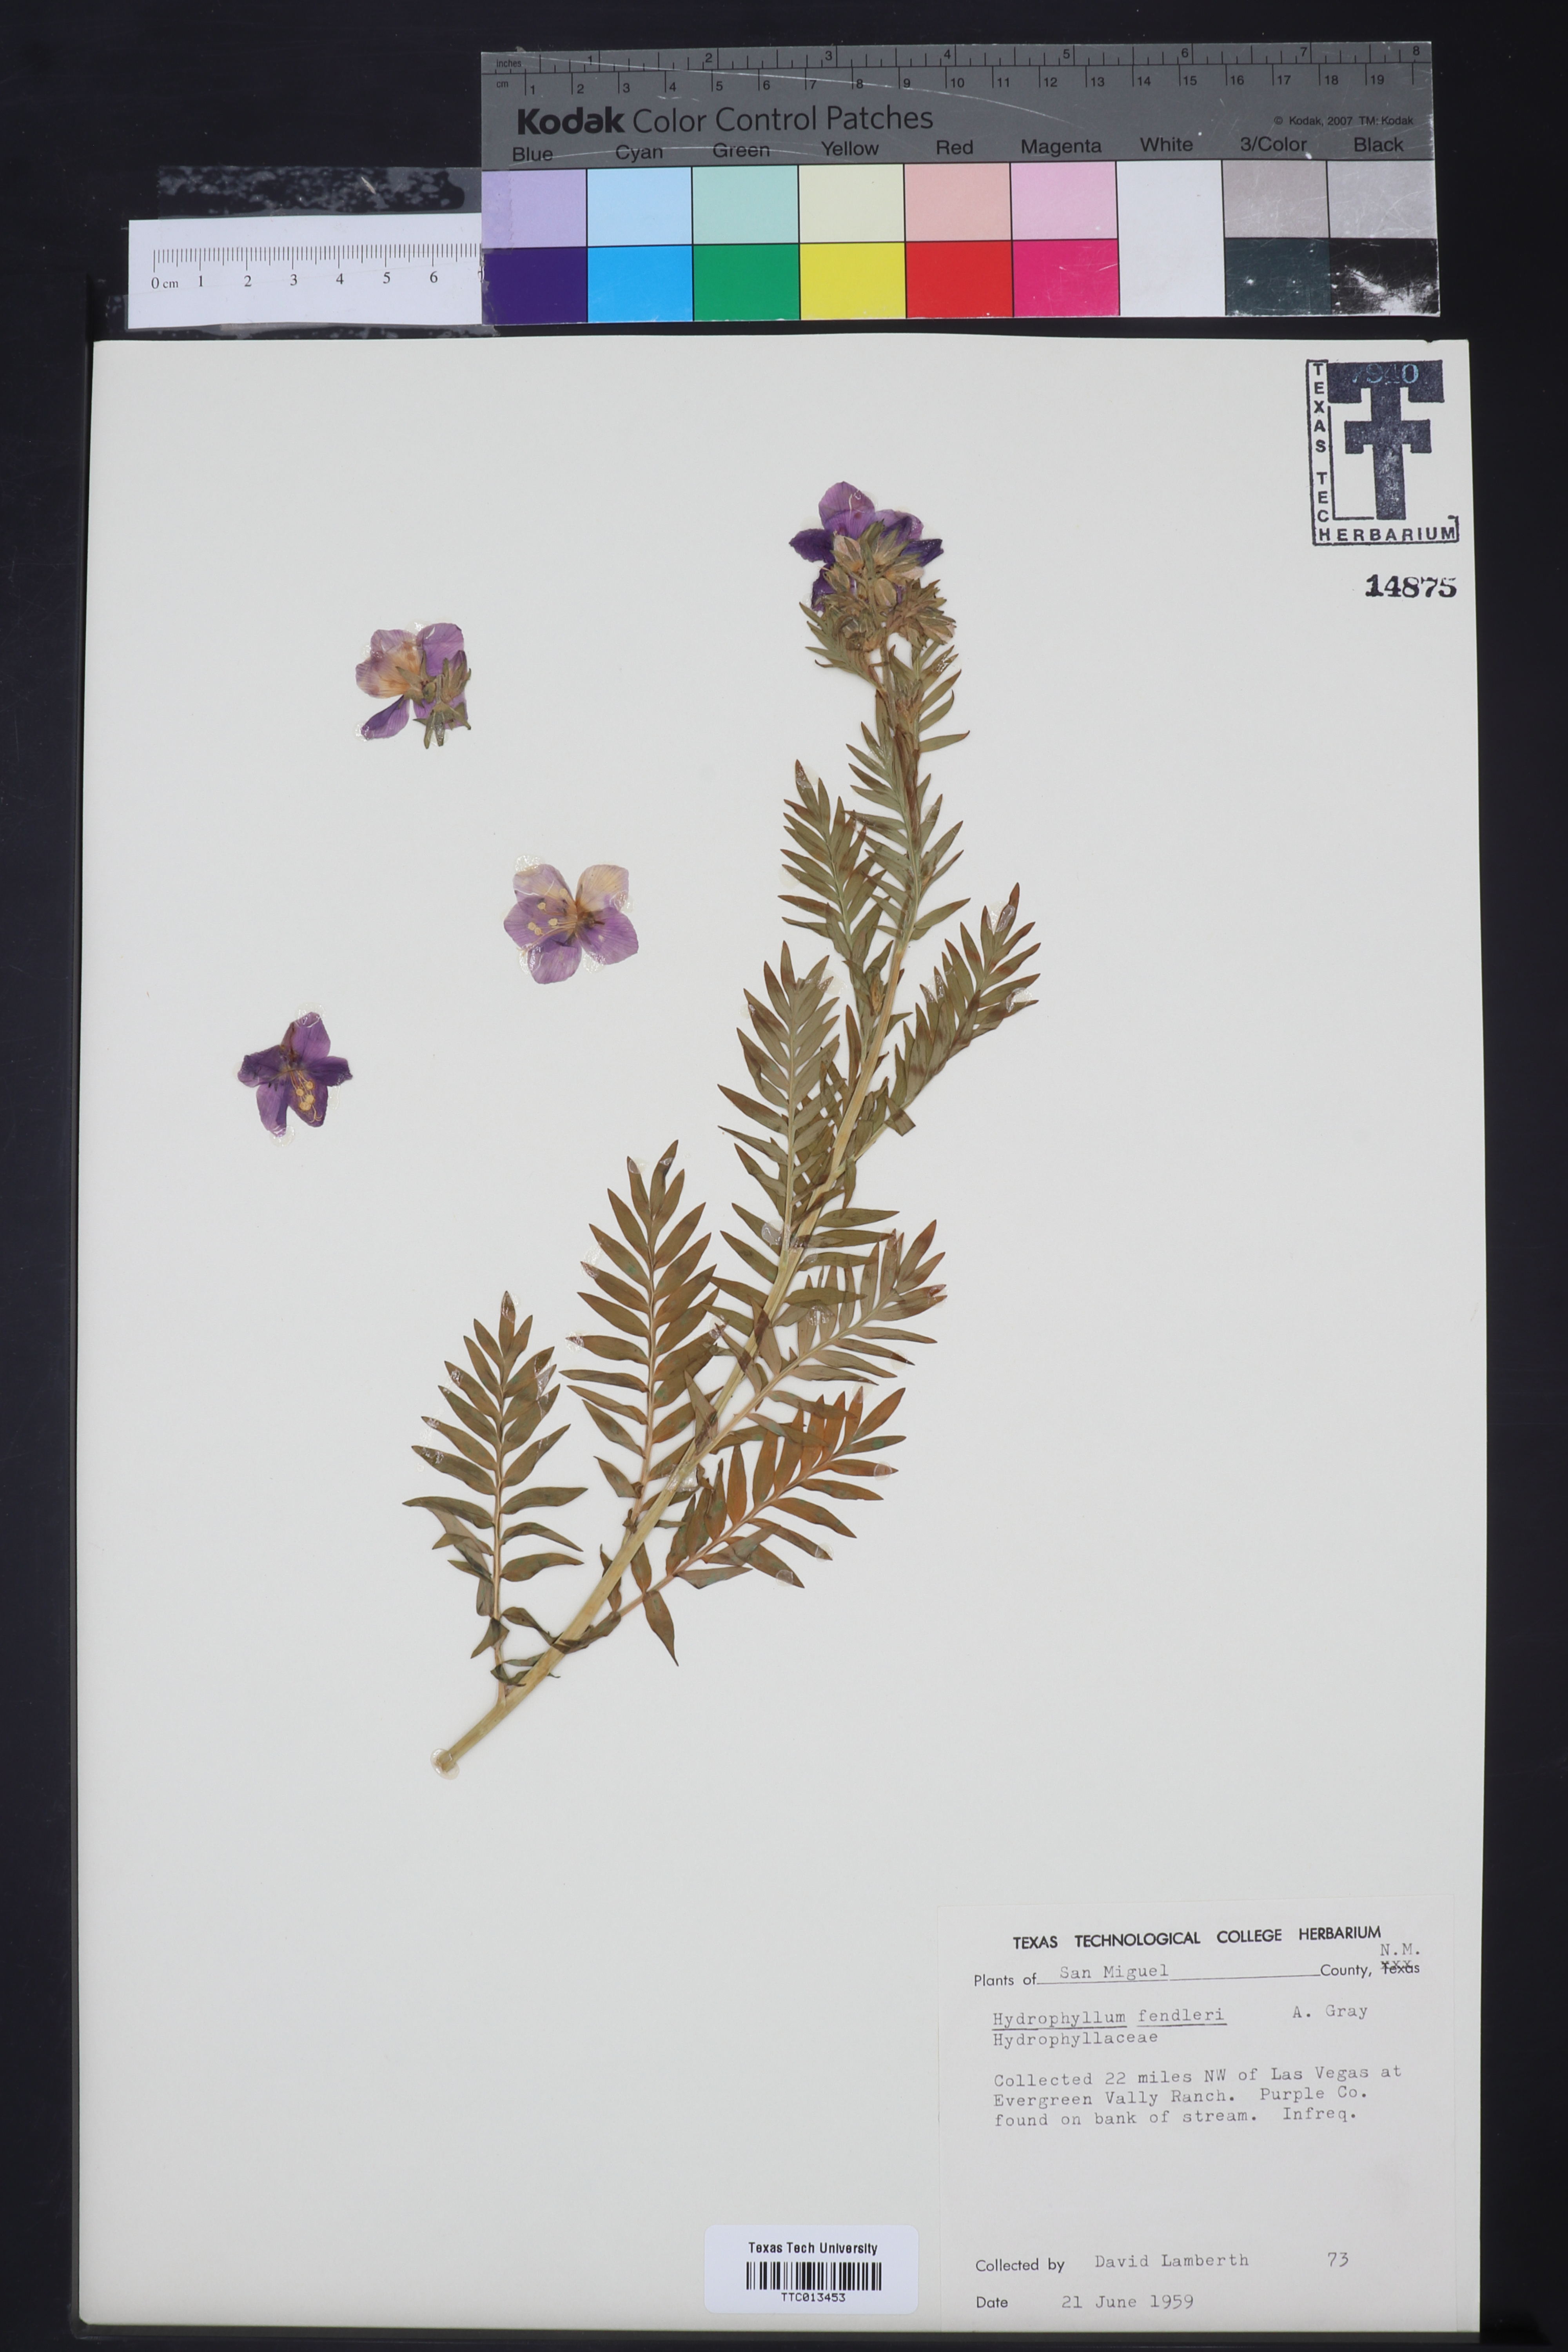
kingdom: Plantae
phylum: Tracheophyta
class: Magnoliopsida
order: Boraginales
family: Hydrophyllaceae
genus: Hydrophyllum
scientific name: Hydrophyllum fendleri
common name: Fendler's waterleaf
